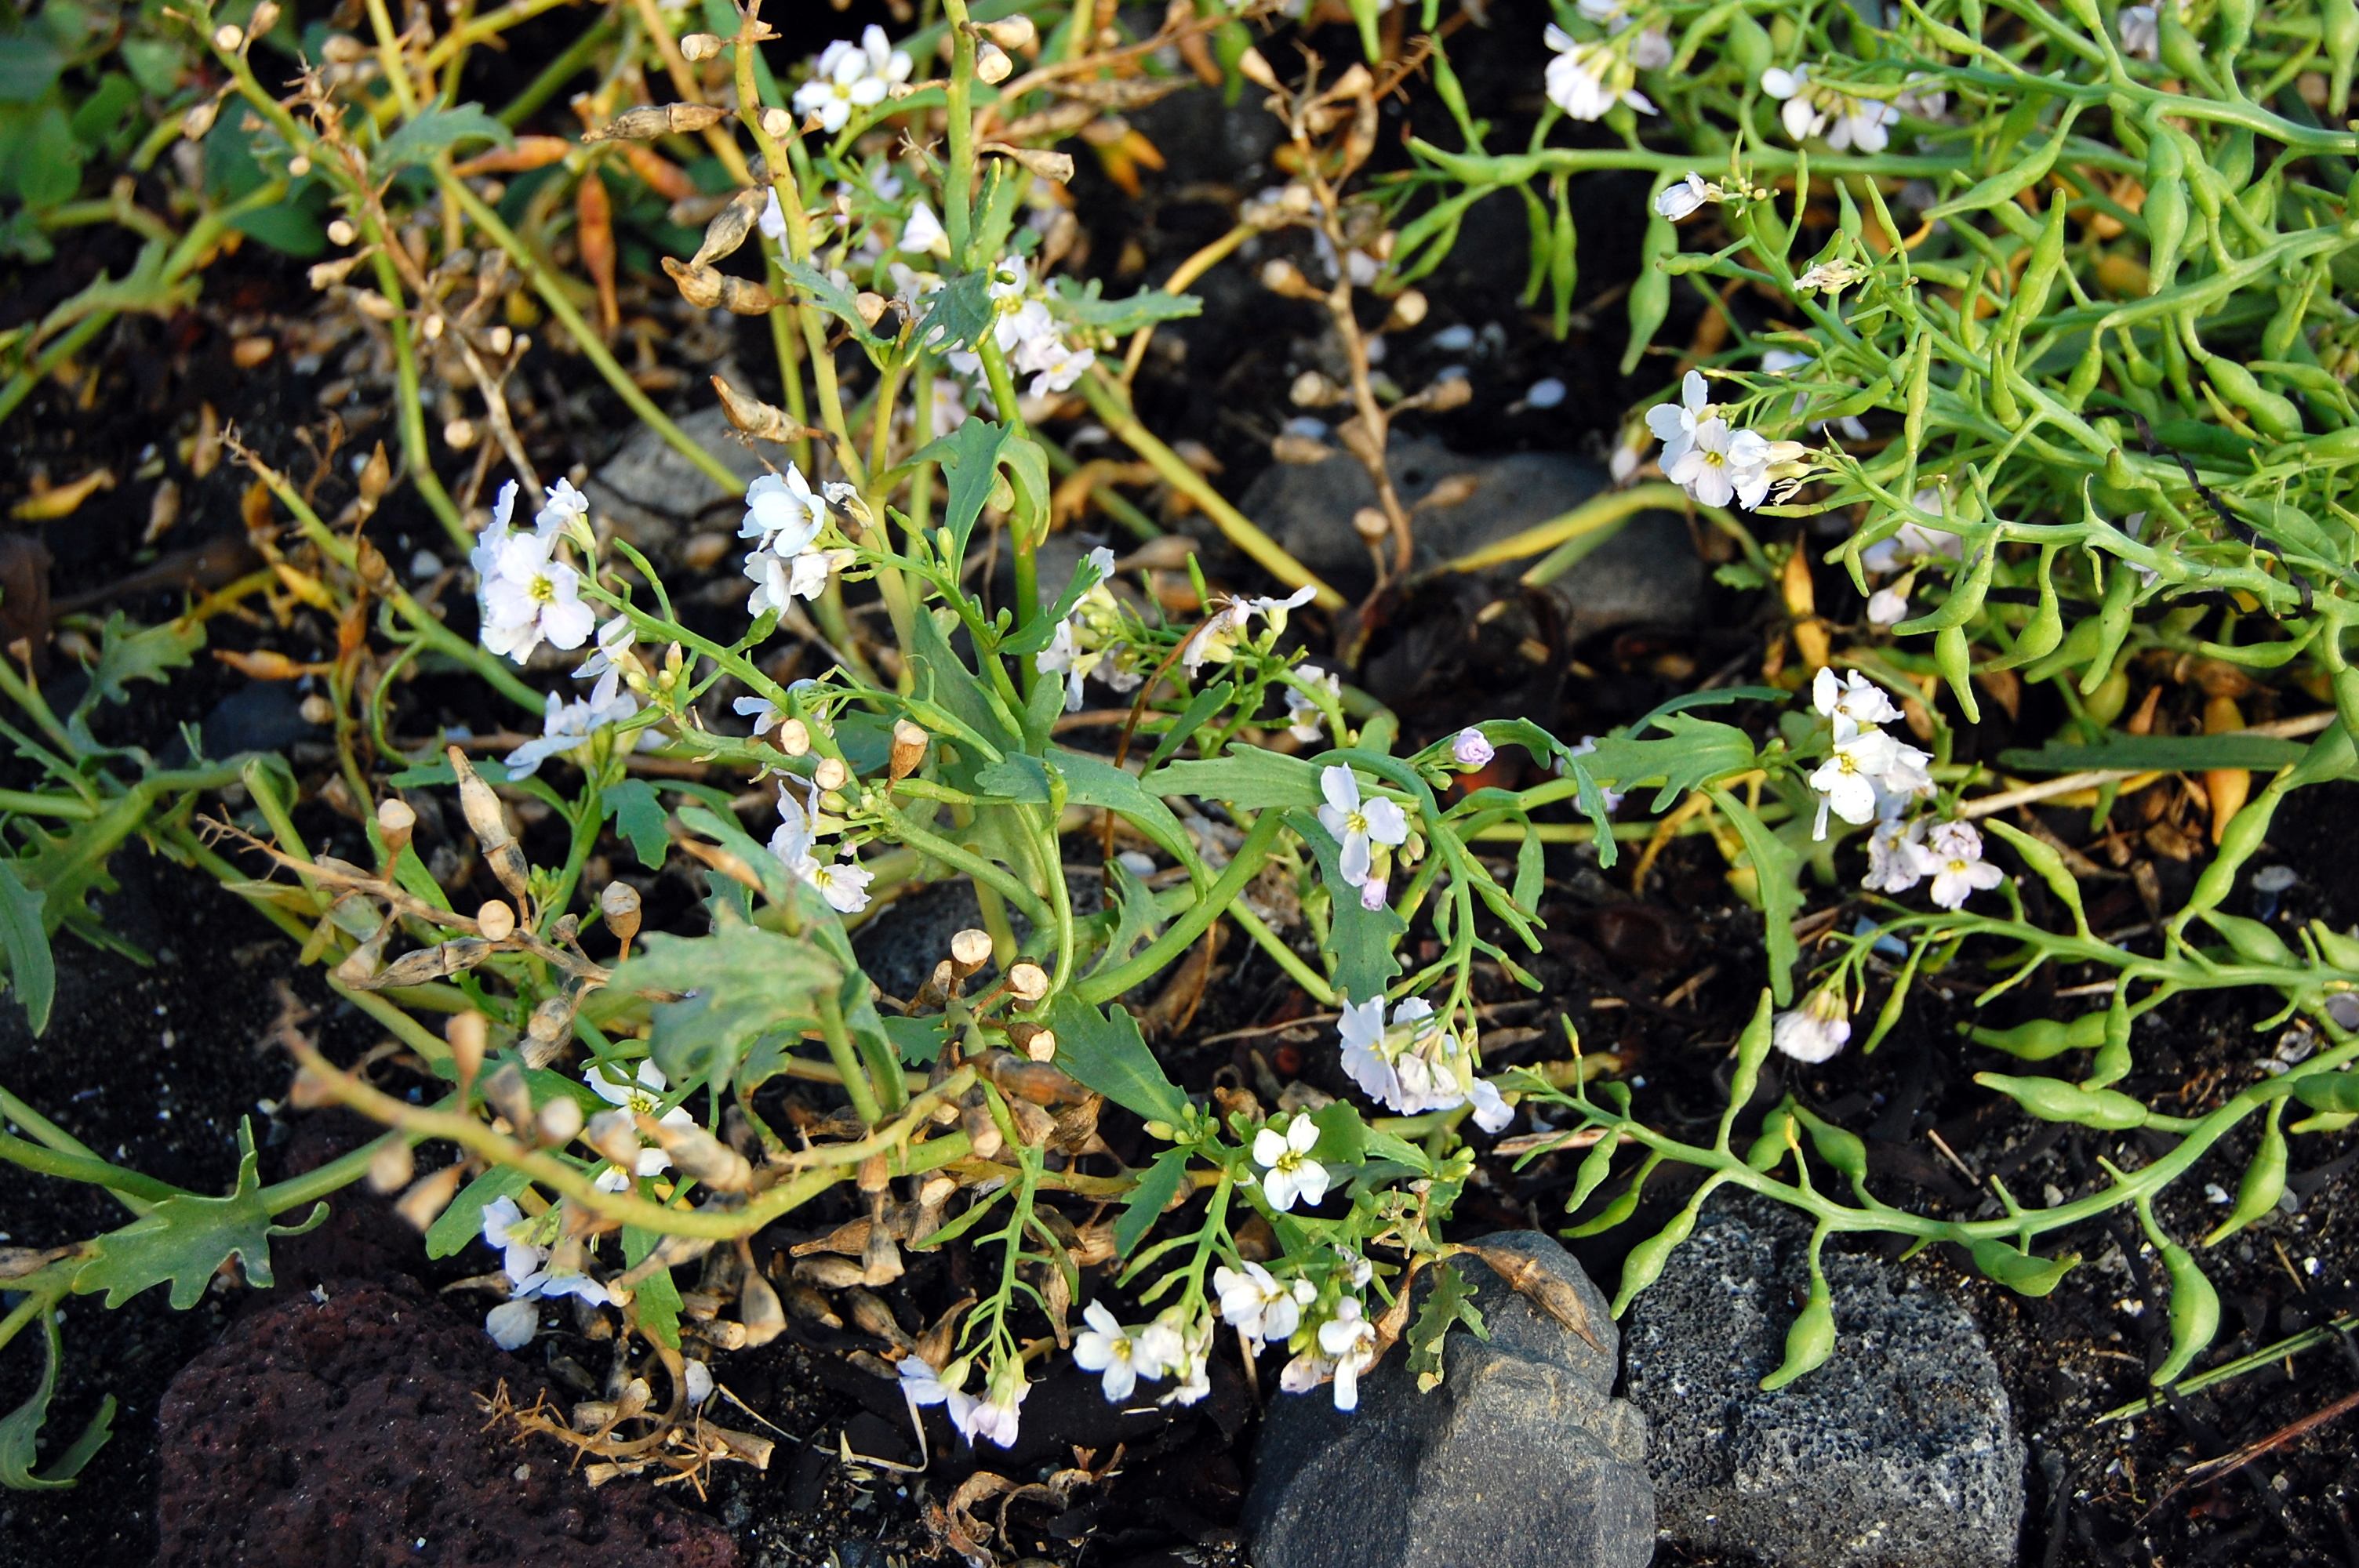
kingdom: Plantae
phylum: Tracheophyta
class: Magnoliopsida
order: Brassicales
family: Brassicaceae
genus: Cakile
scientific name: Cakile arctica
